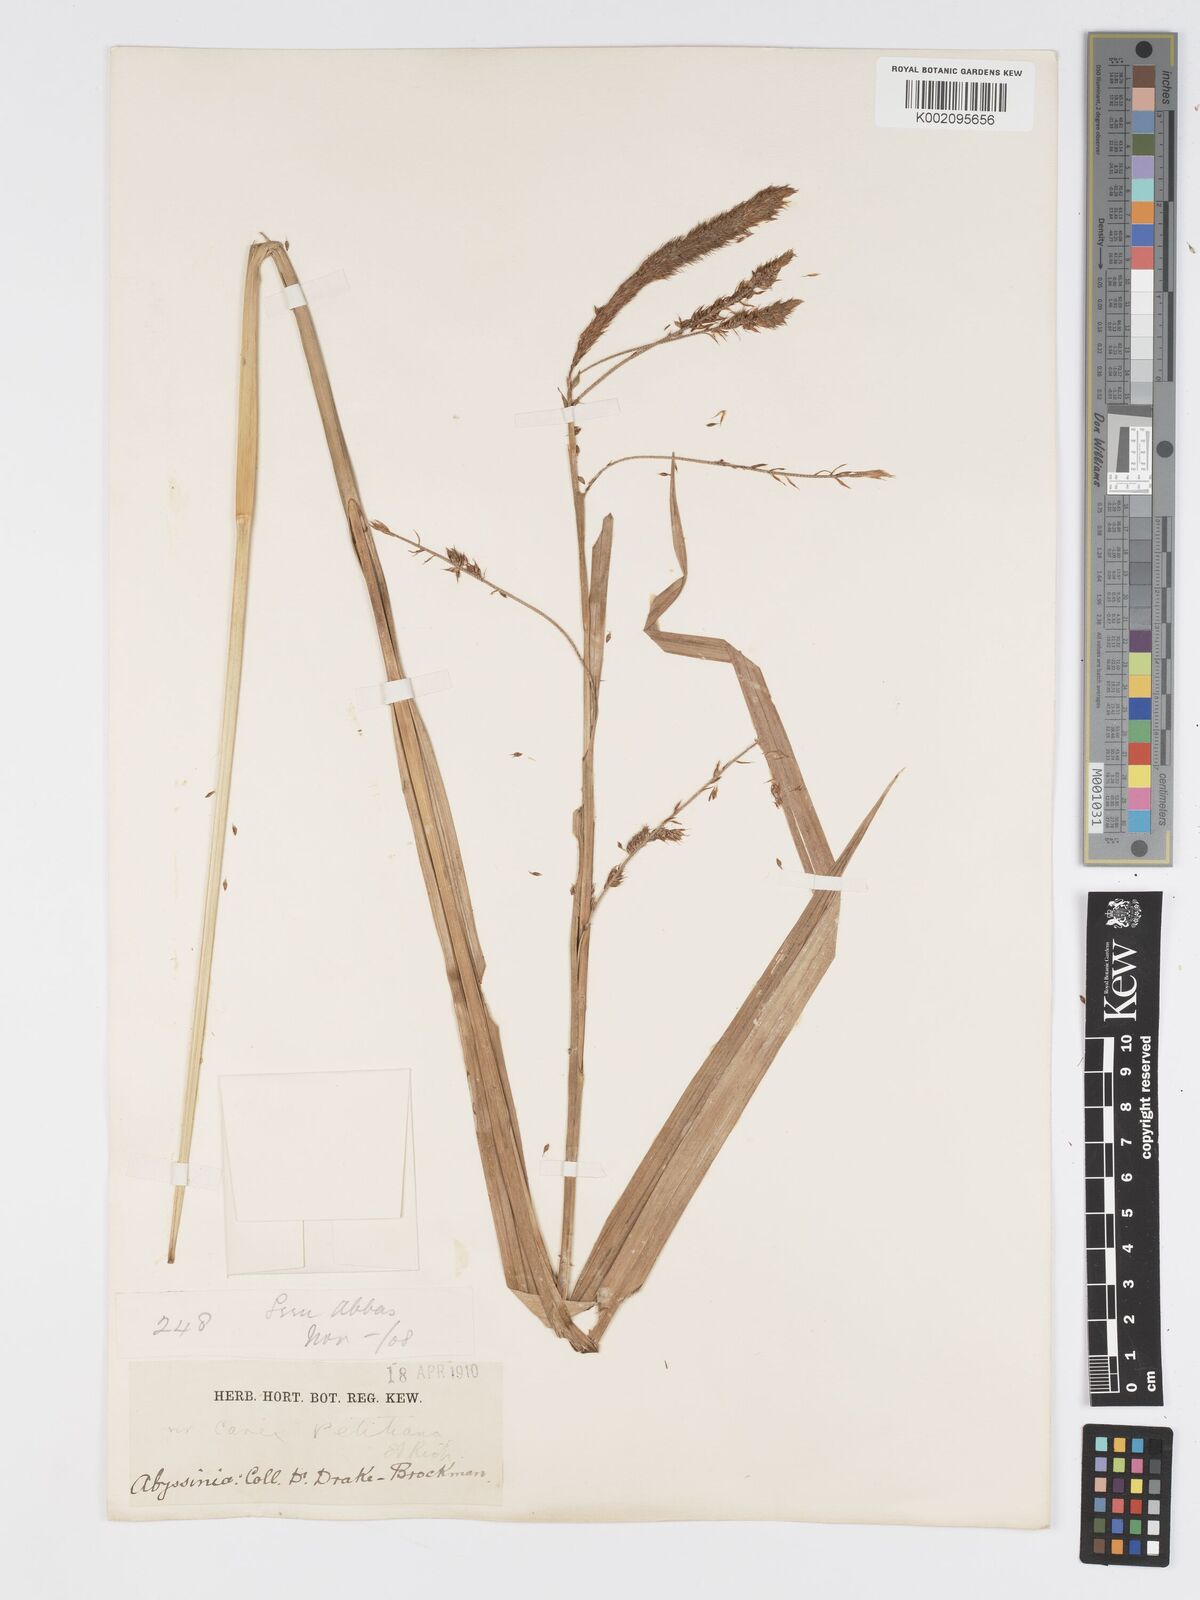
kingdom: Plantae
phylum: Tracheophyta
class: Liliopsida
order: Poales
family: Cyperaceae
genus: Carex
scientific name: Carex petitiana
